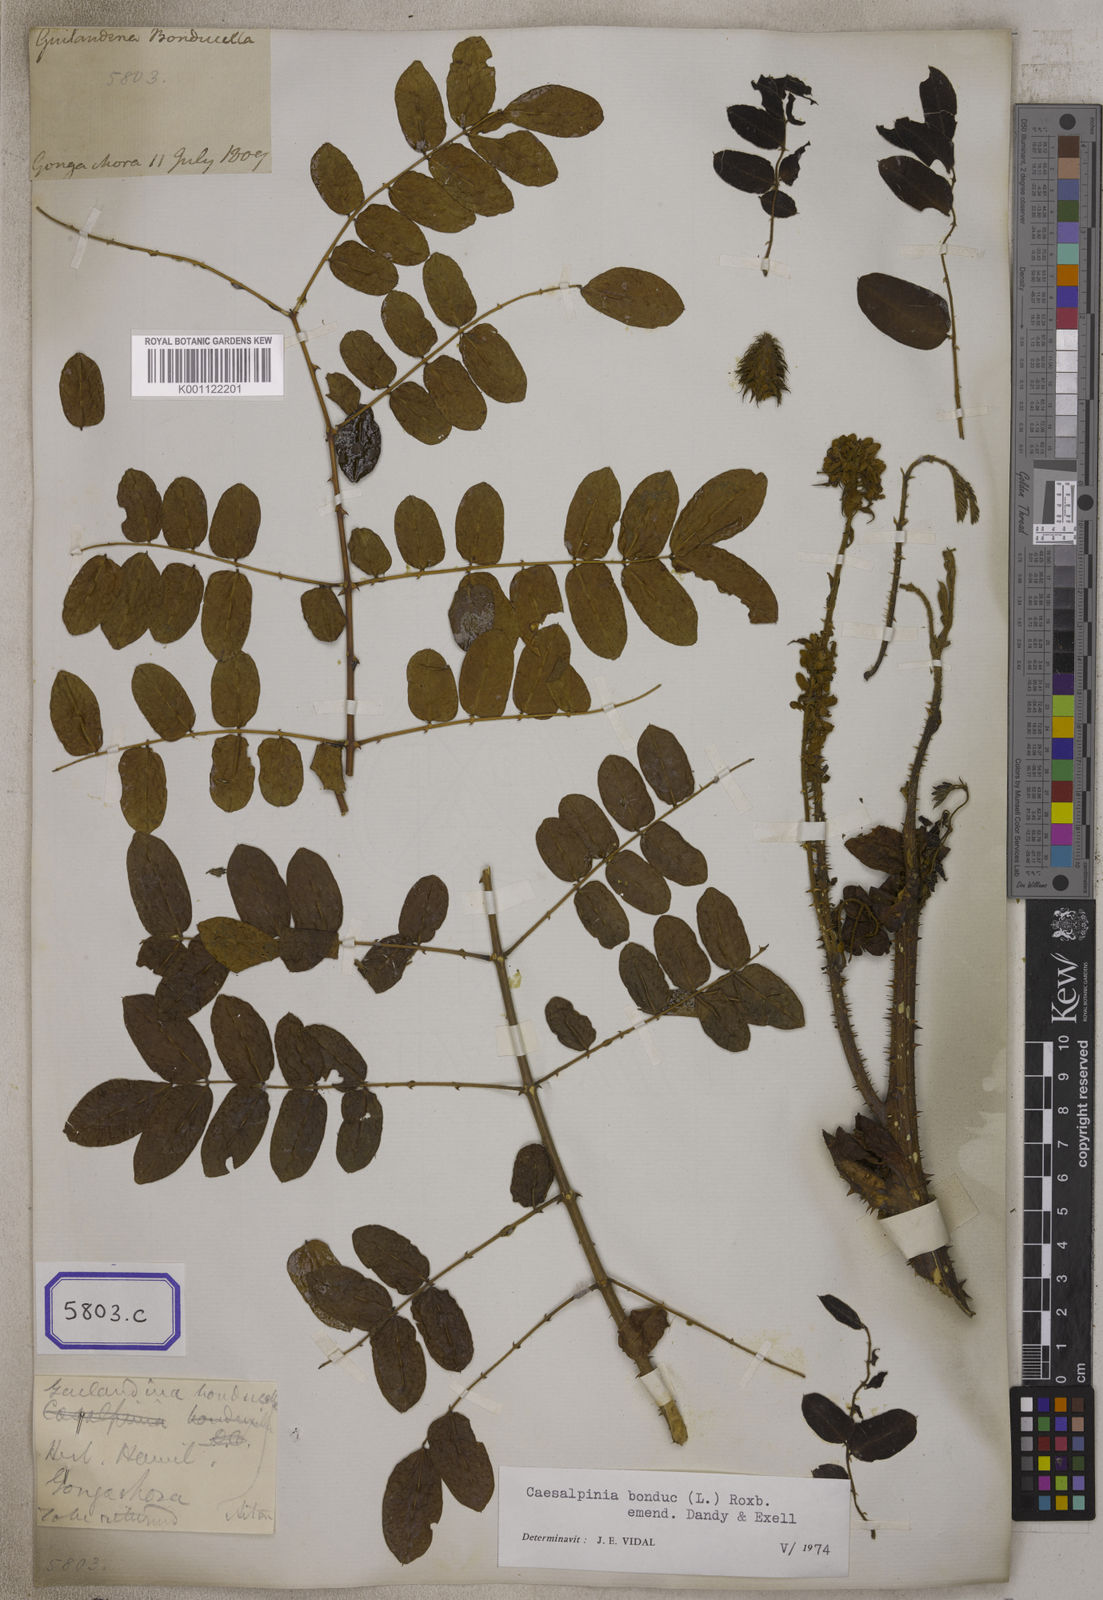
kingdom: Plantae
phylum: Tracheophyta
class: Magnoliopsida
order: Fabales
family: Fabaceae
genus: Guilandina
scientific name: Guilandina bonduc
